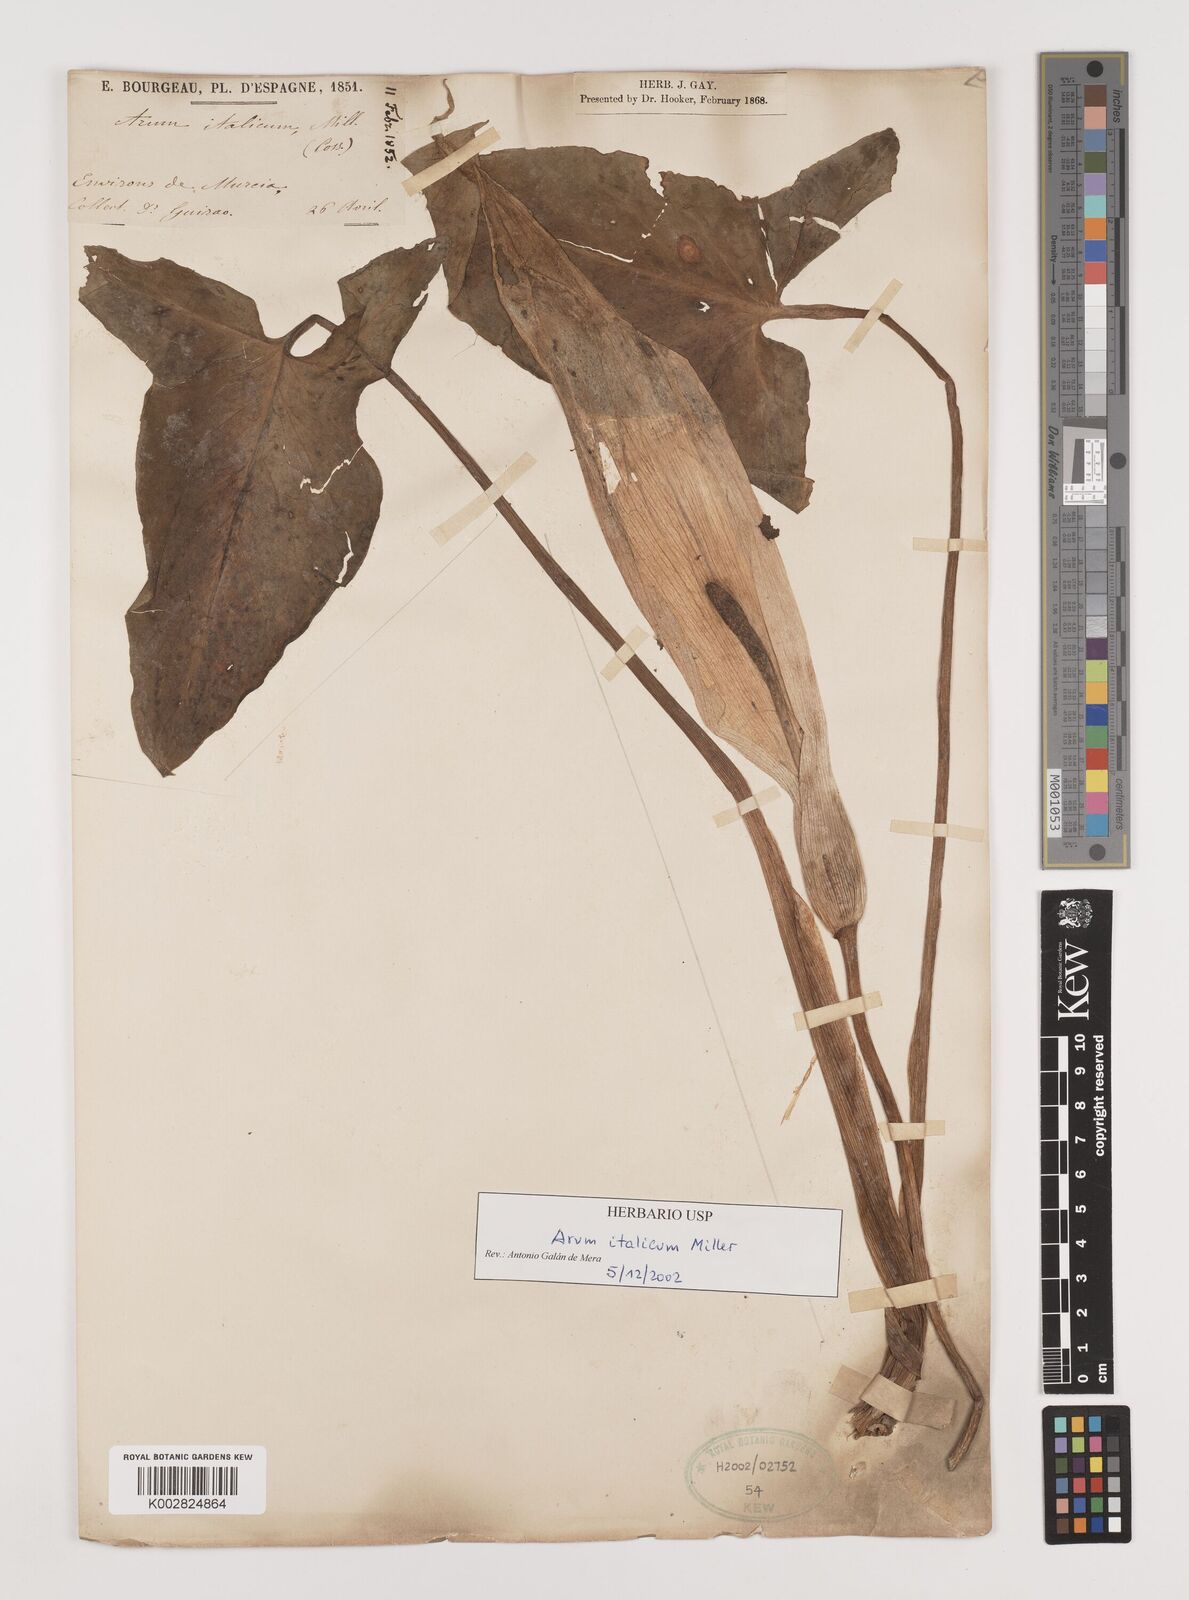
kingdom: Plantae
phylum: Tracheophyta
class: Liliopsida
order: Alismatales
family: Araceae
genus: Arum
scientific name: Arum italicum
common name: Italian lords-and-ladies
